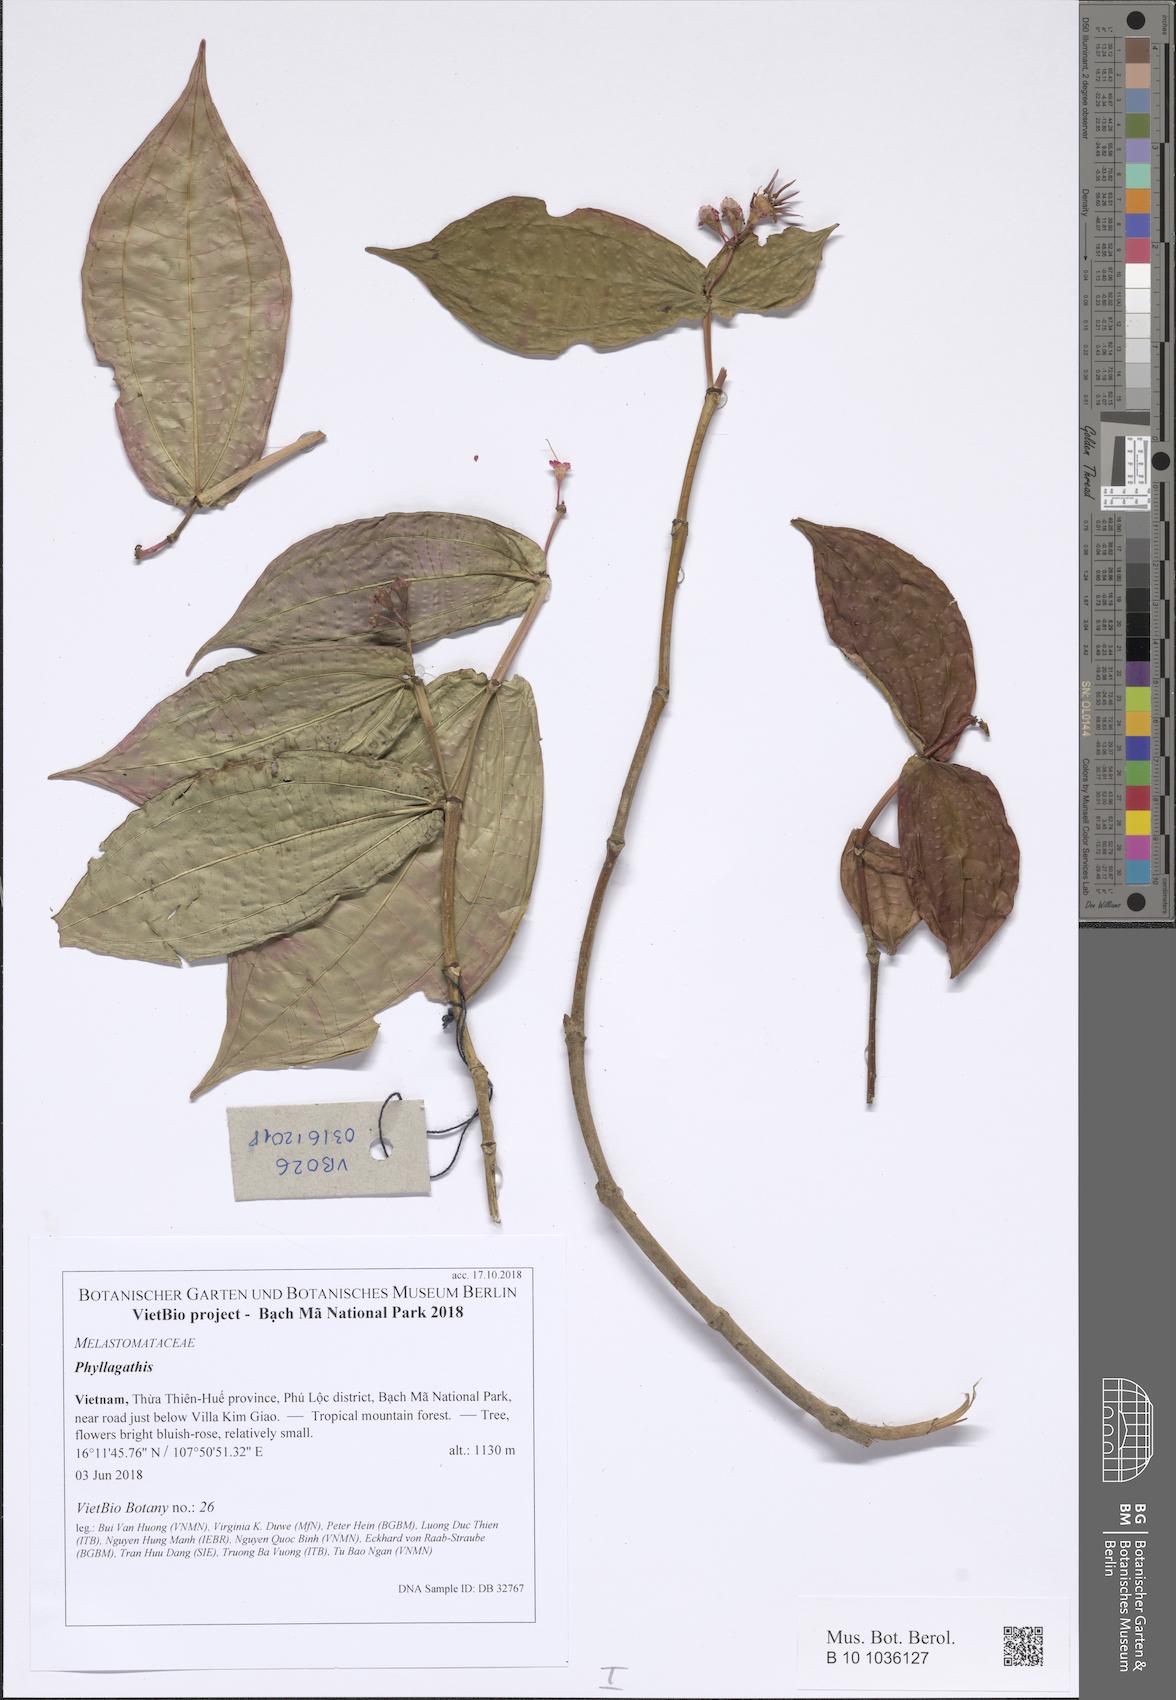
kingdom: Plantae
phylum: Tracheophyta
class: Magnoliopsida
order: Myrtales
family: Melastomataceae
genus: Phyllagathis
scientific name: Phyllagathis
